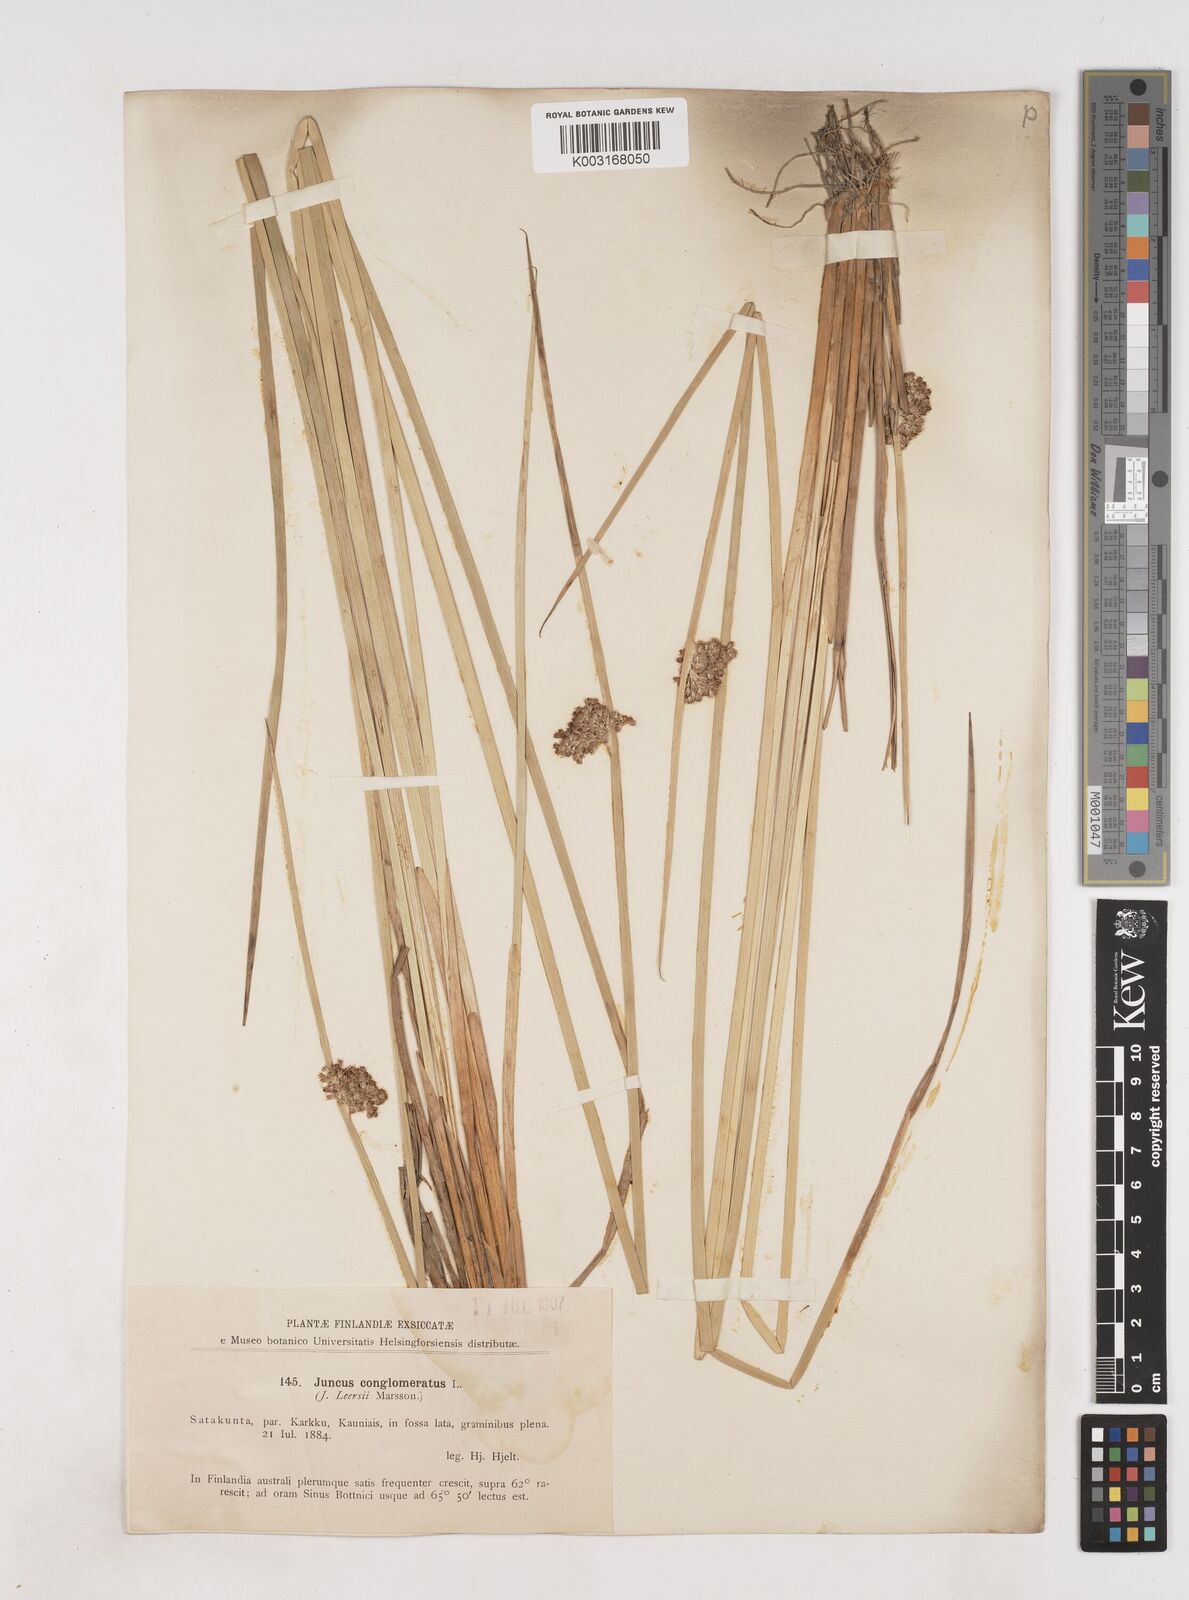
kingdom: Plantae
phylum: Tracheophyta
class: Liliopsida
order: Poales
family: Juncaceae
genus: Juncus
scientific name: Juncus conglomeratus
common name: Compact rush
